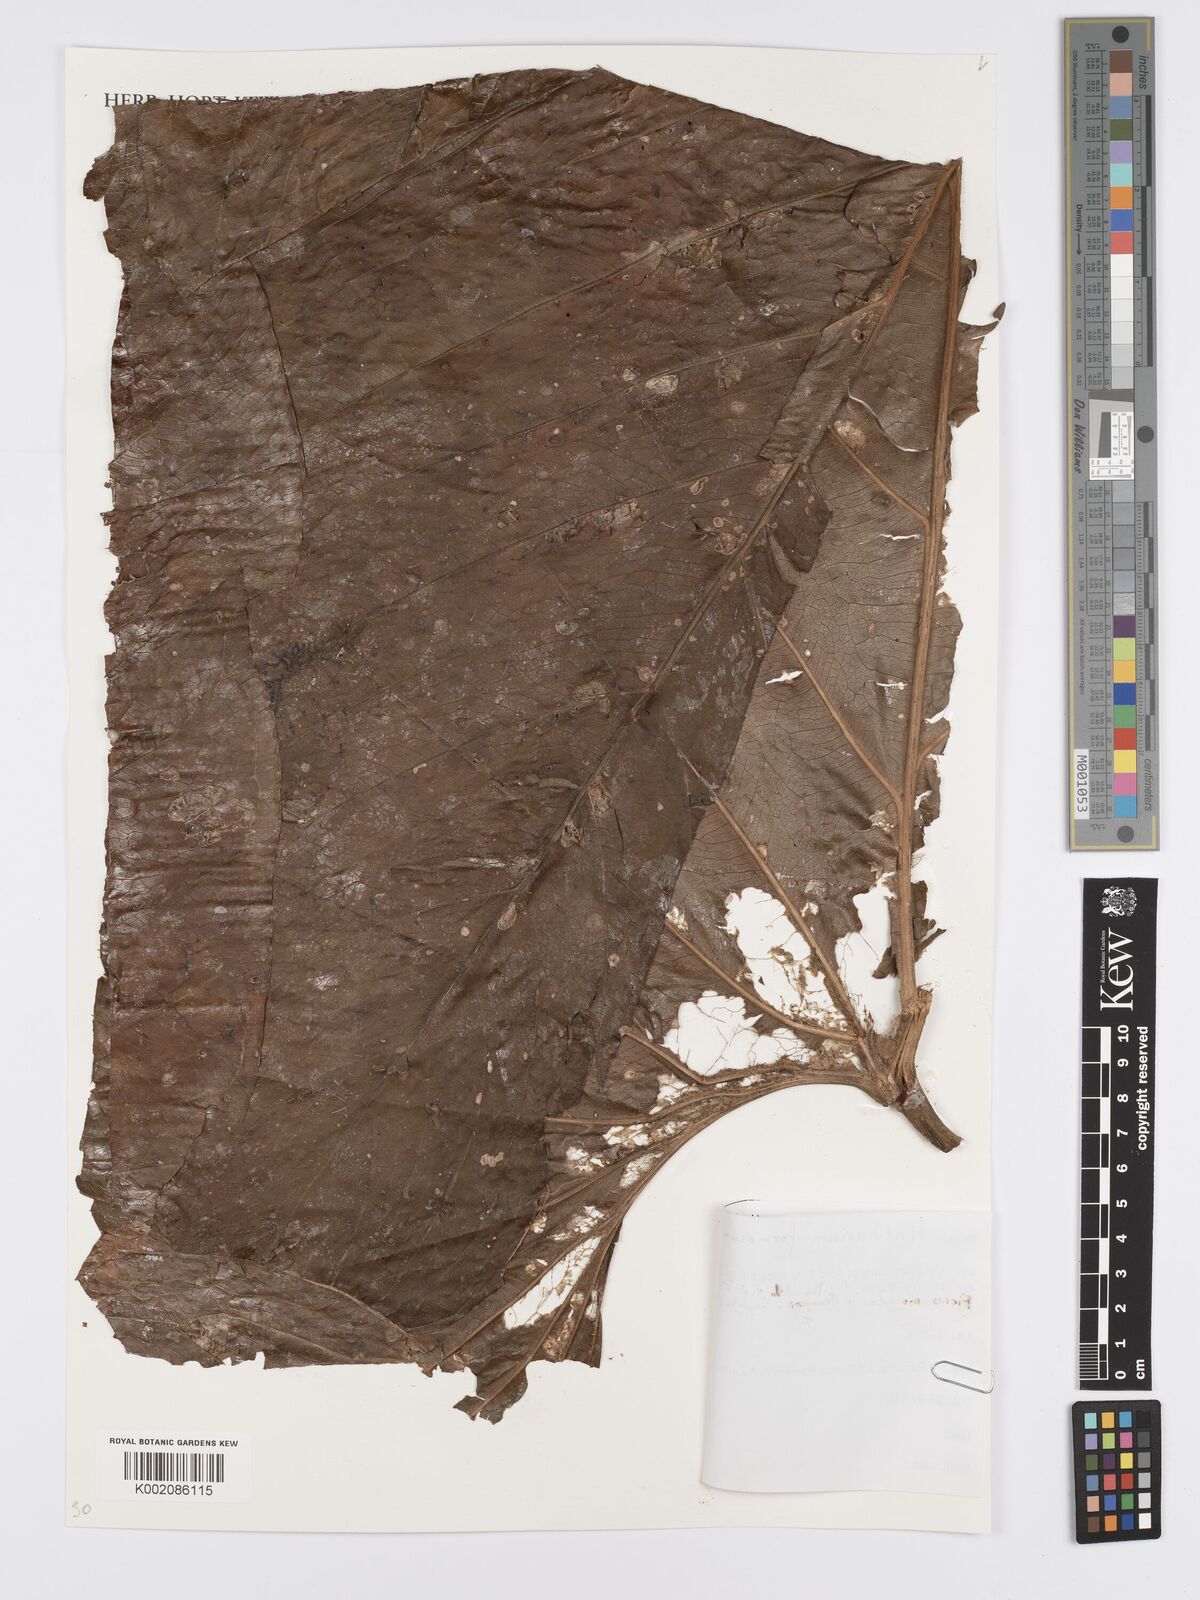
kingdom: Plantae
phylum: Tracheophyta
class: Liliopsida
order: Alismatales
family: Araceae
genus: Anthurium
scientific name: Anthurium formosum
